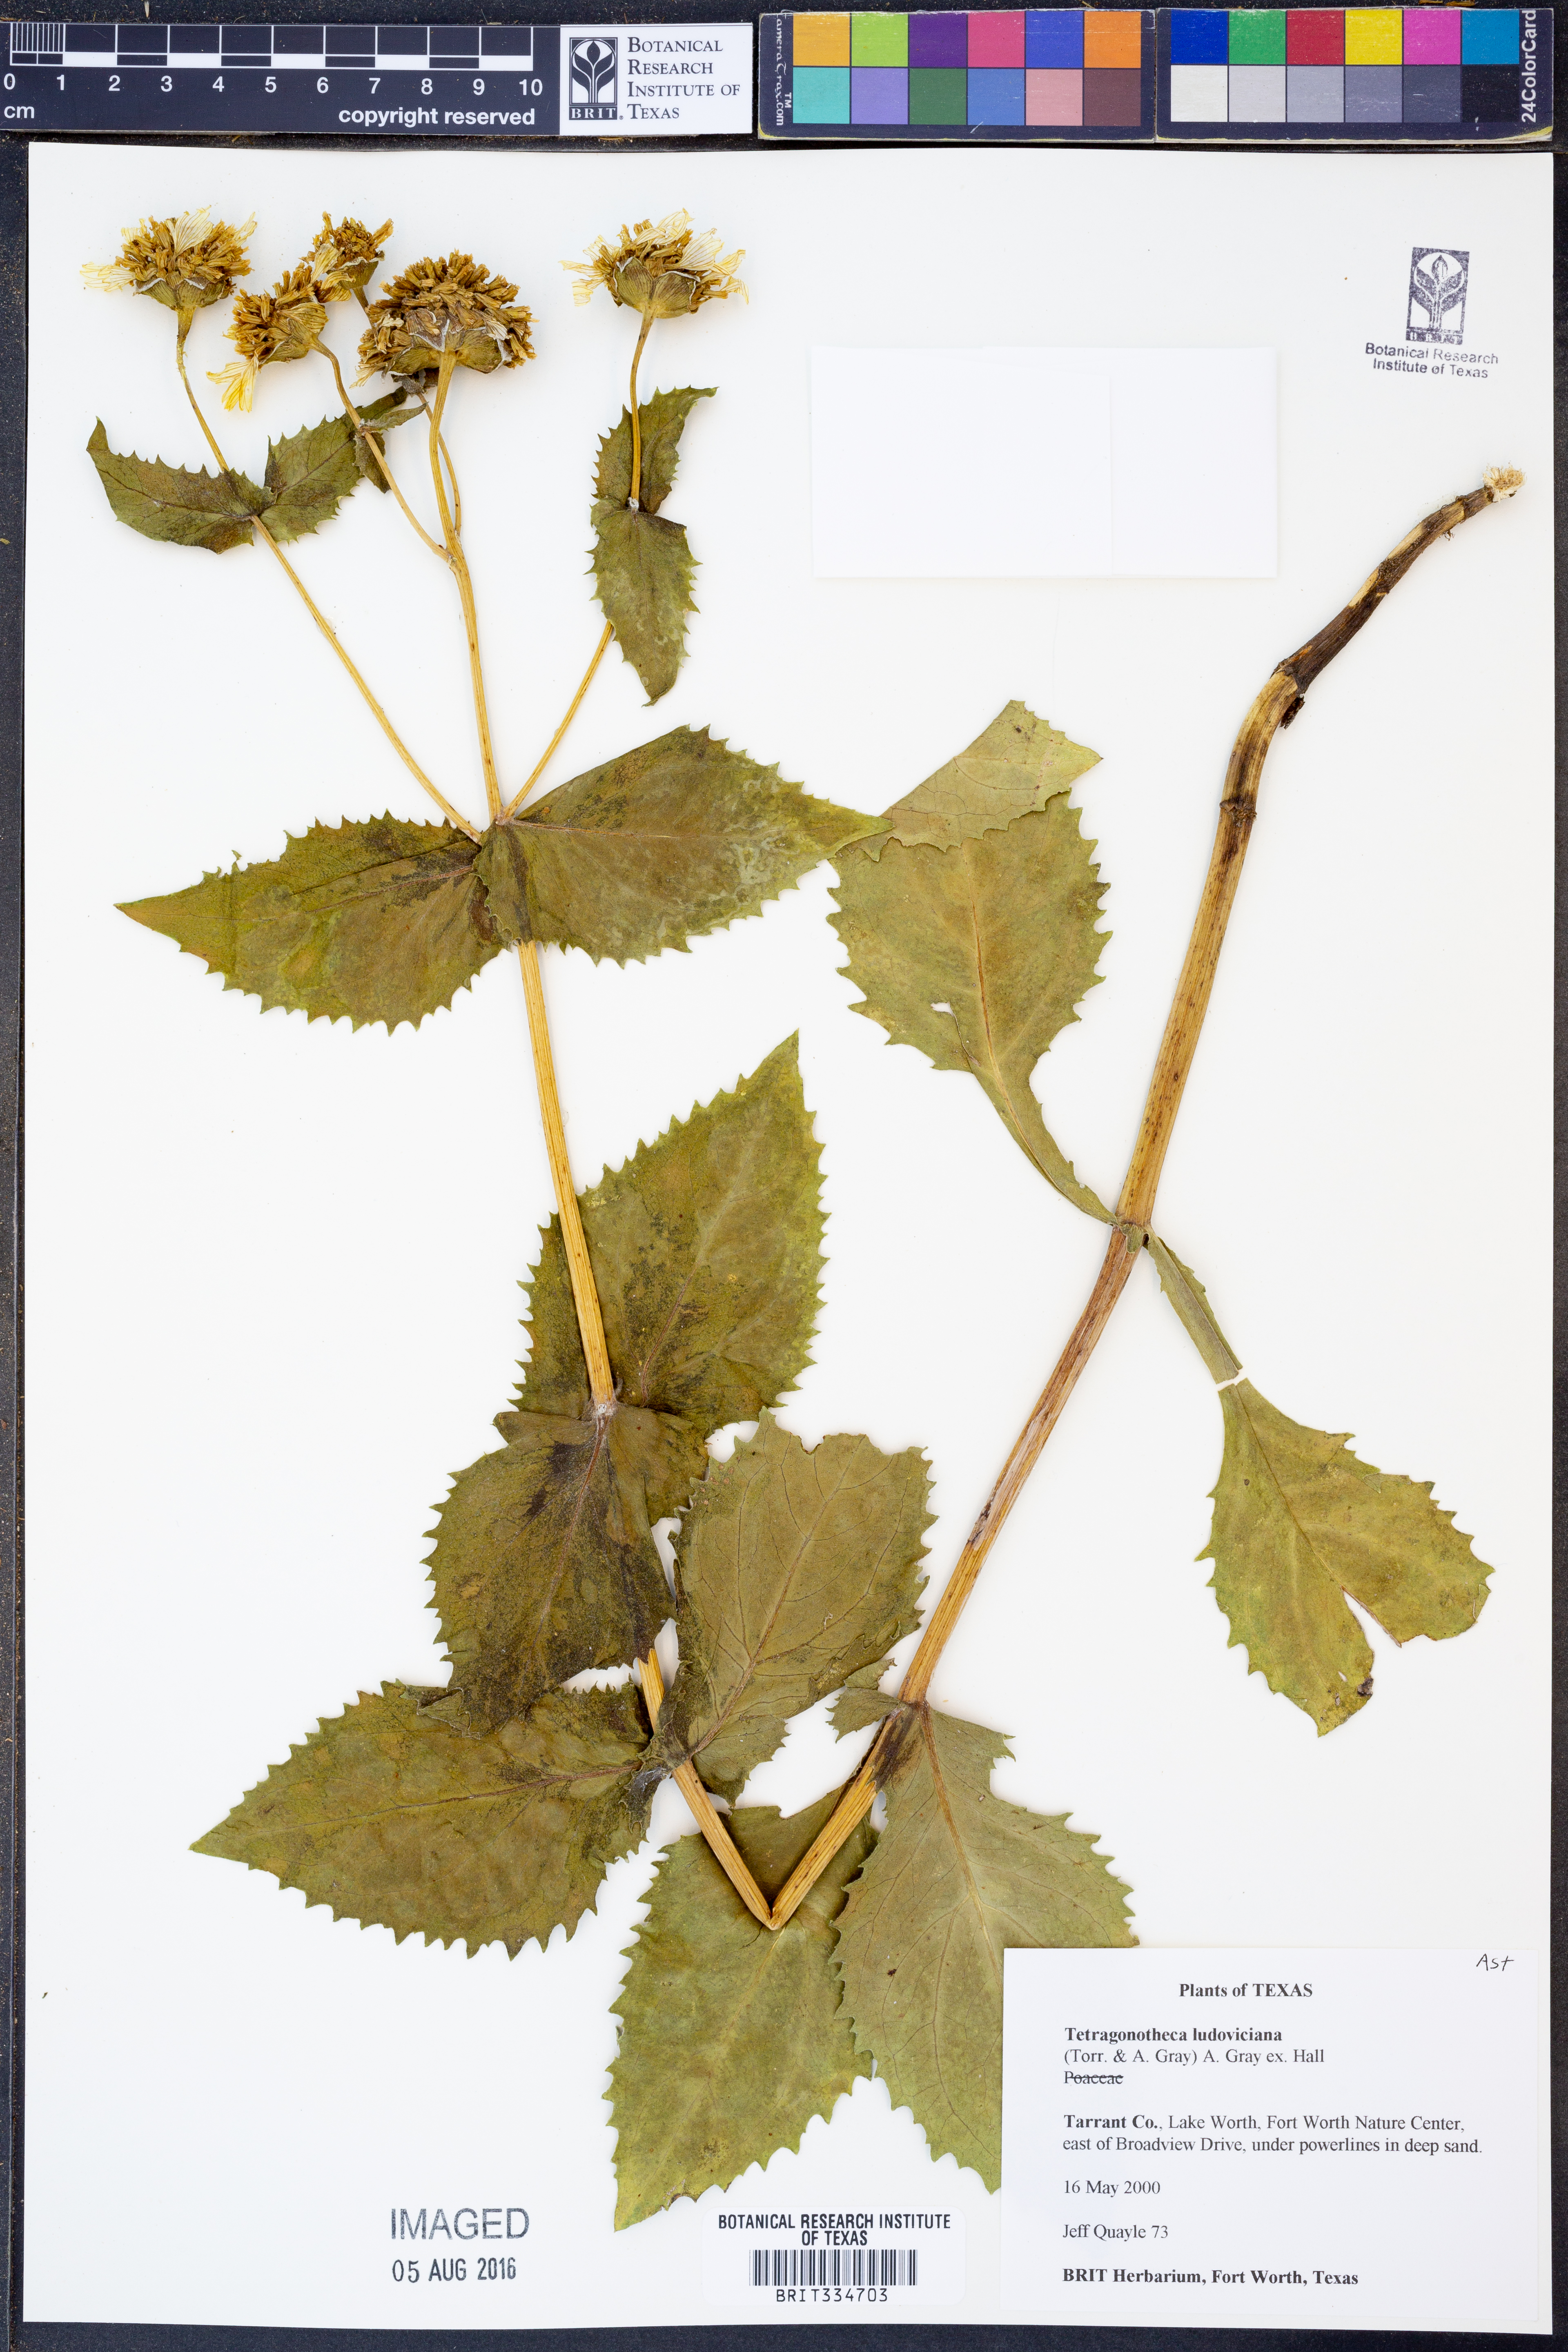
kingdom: Plantae
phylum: Tracheophyta
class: Magnoliopsida
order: Asterales
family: Asteraceae
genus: Tetragonotheca
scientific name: Tetragonotheca ludoviciana
